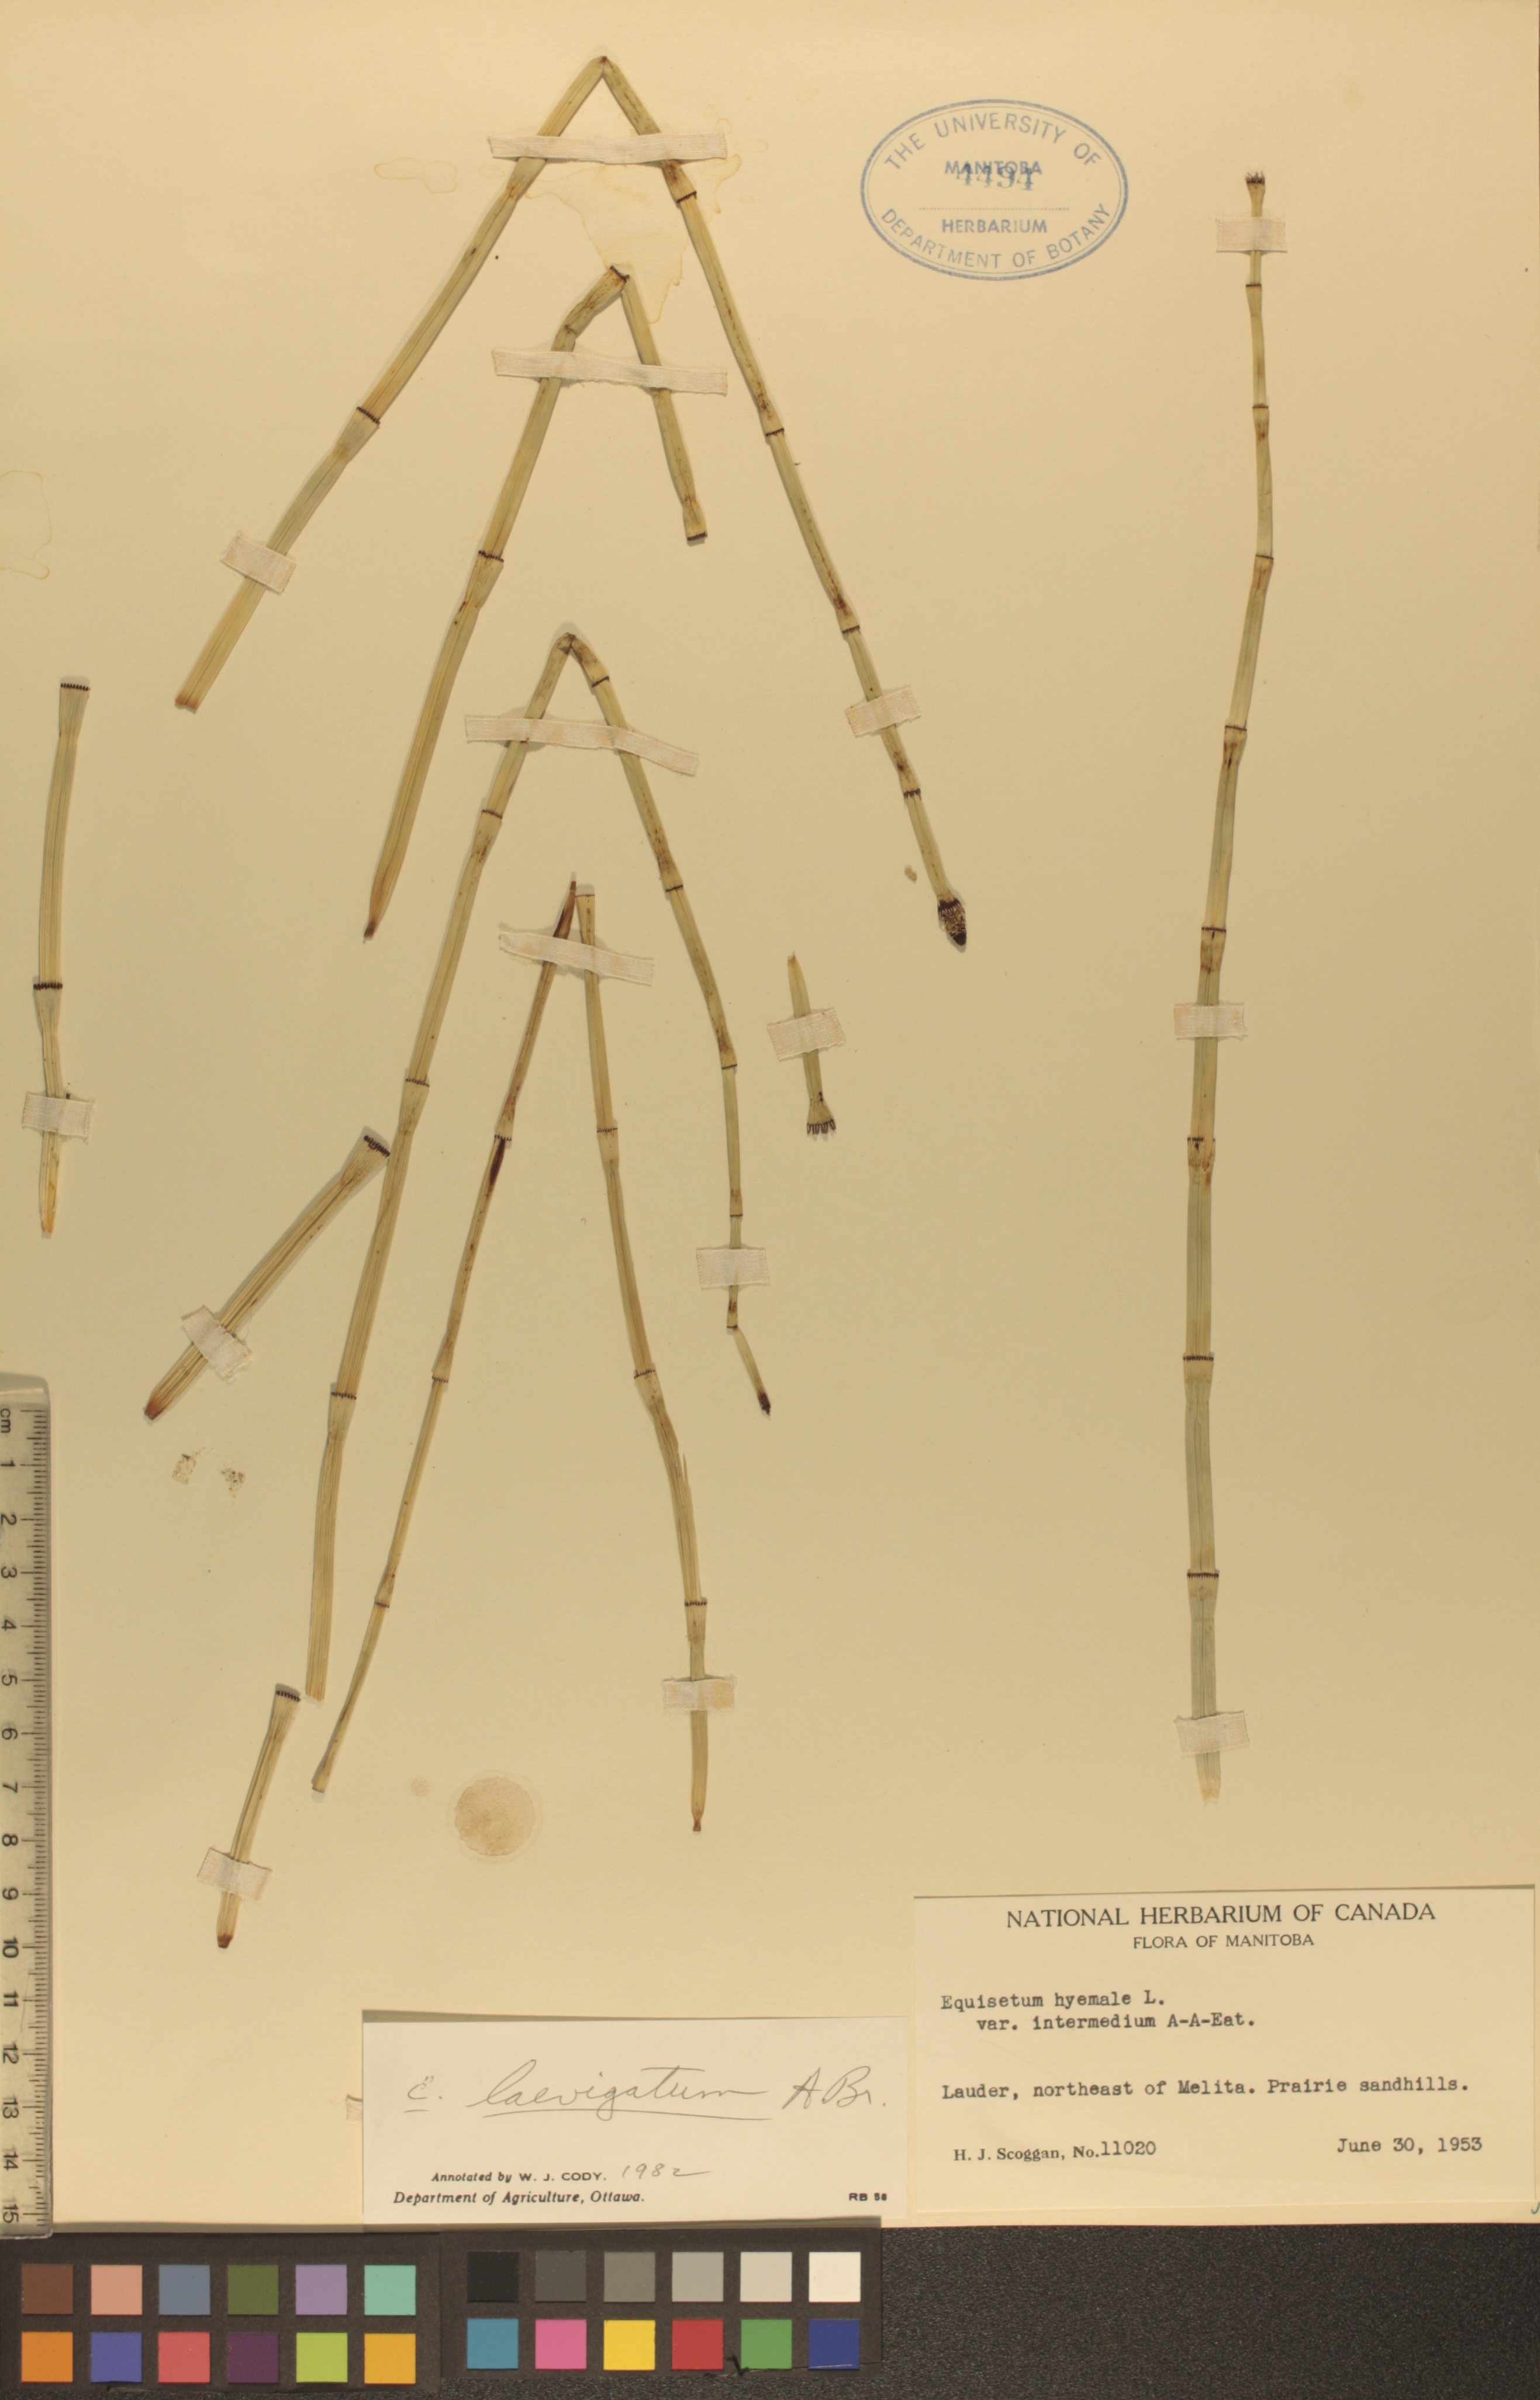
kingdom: Plantae
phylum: Tracheophyta
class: Polypodiopsida
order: Equisetales
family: Equisetaceae
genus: Equisetum
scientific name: Equisetum laevigatum
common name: Smooth scouring-rush
